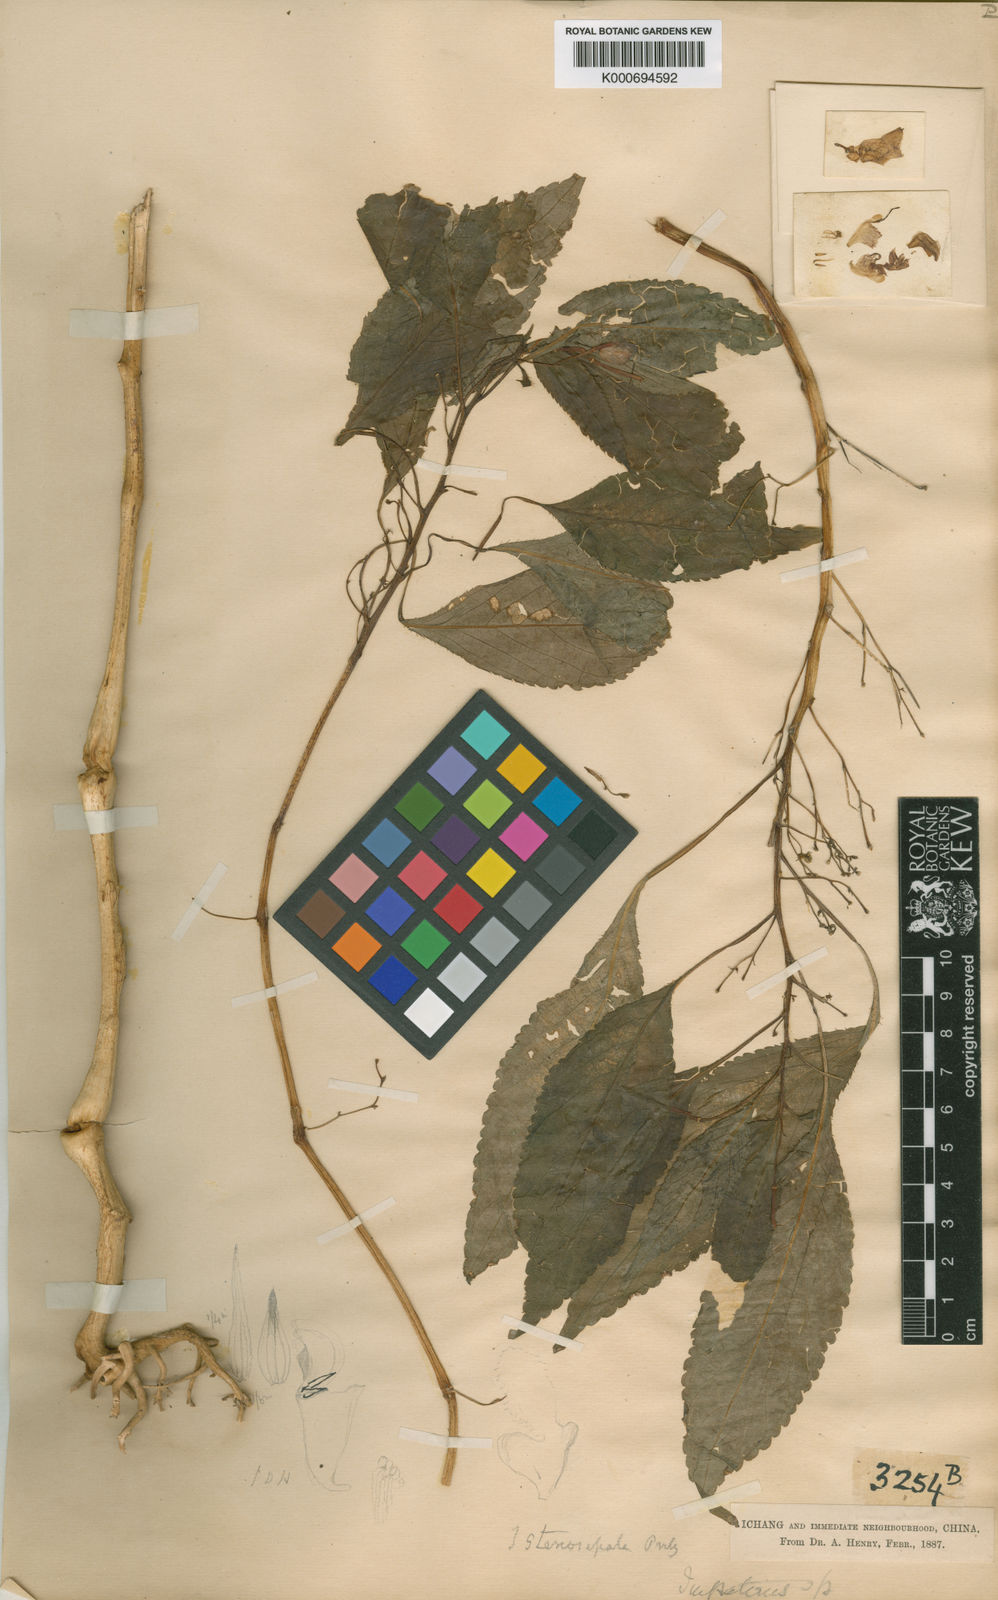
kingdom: Plantae
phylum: Tracheophyta
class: Magnoliopsida
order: Ericales
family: Balsaminaceae
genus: Impatiens
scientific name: Impatiens stenosepala
